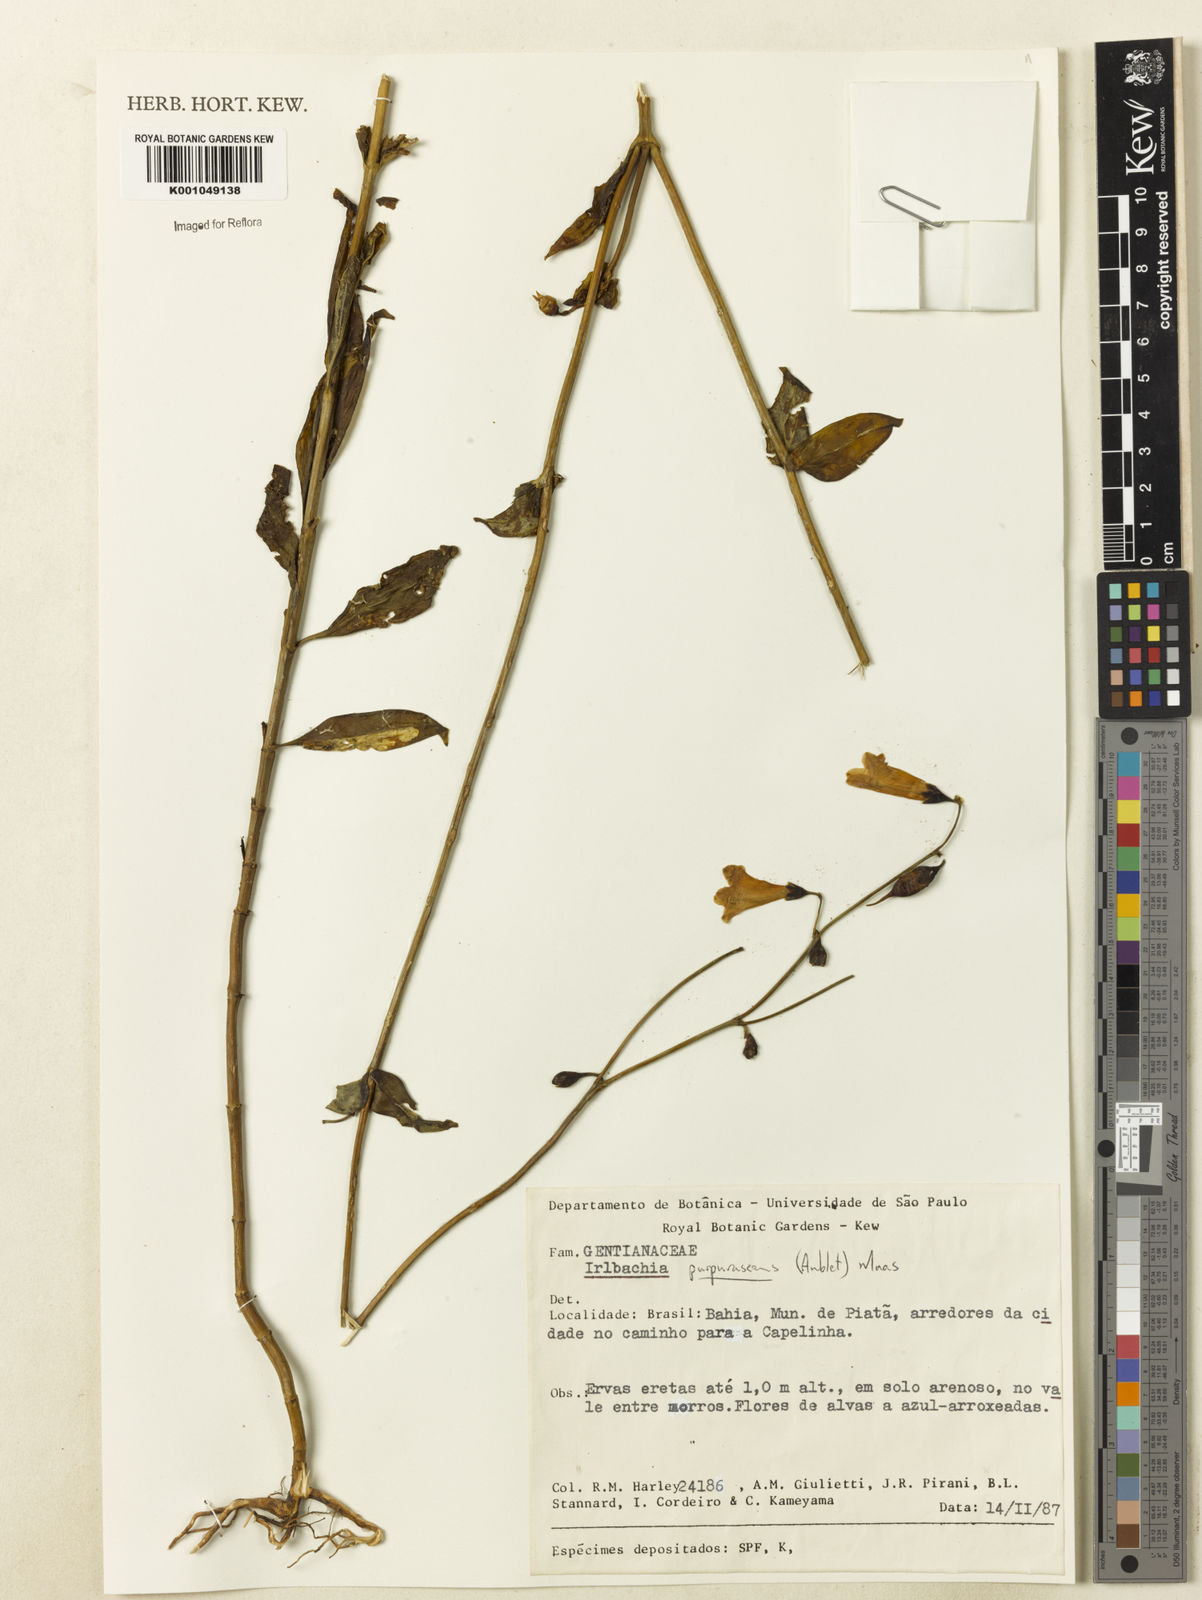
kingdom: Plantae
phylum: Tracheophyta
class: Magnoliopsida
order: Gentianales
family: Gentianaceae
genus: Chelonanthus
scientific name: Chelonanthus purpurascens
